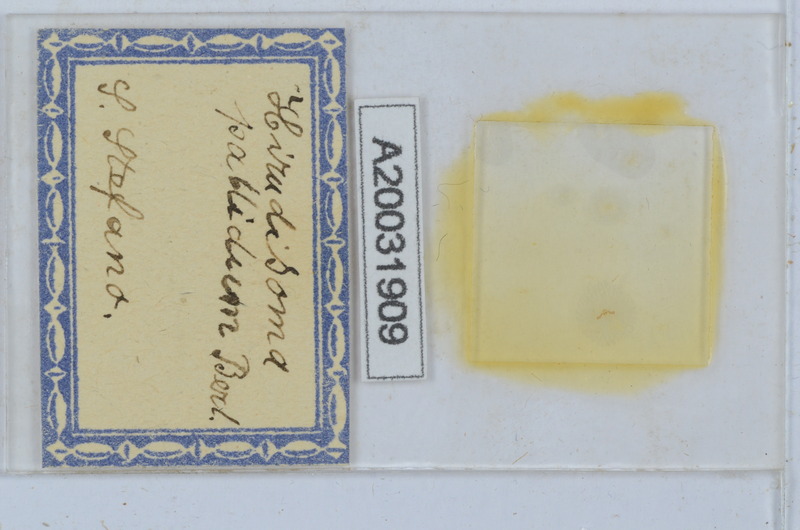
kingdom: Animalia
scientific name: Animalia
